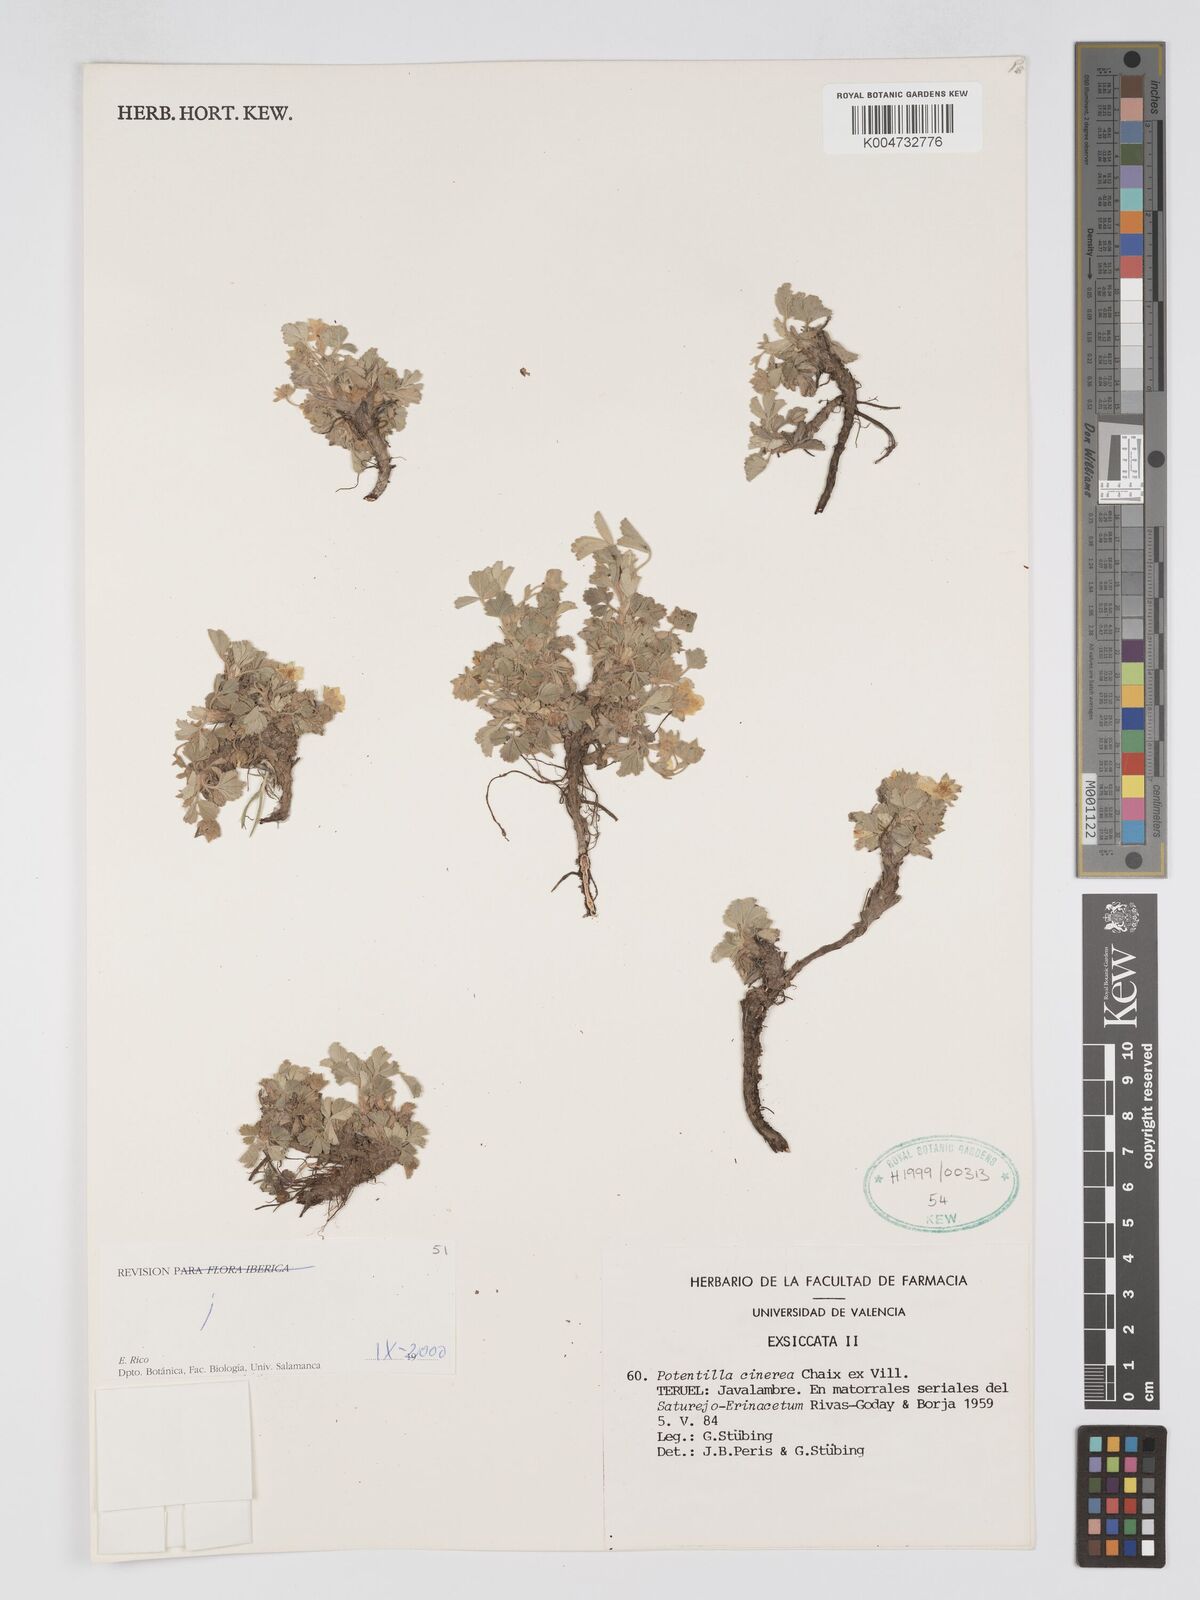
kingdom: Plantae
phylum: Tracheophyta
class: Magnoliopsida
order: Rosales
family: Rosaceae
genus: Potentilla
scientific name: Potentilla
